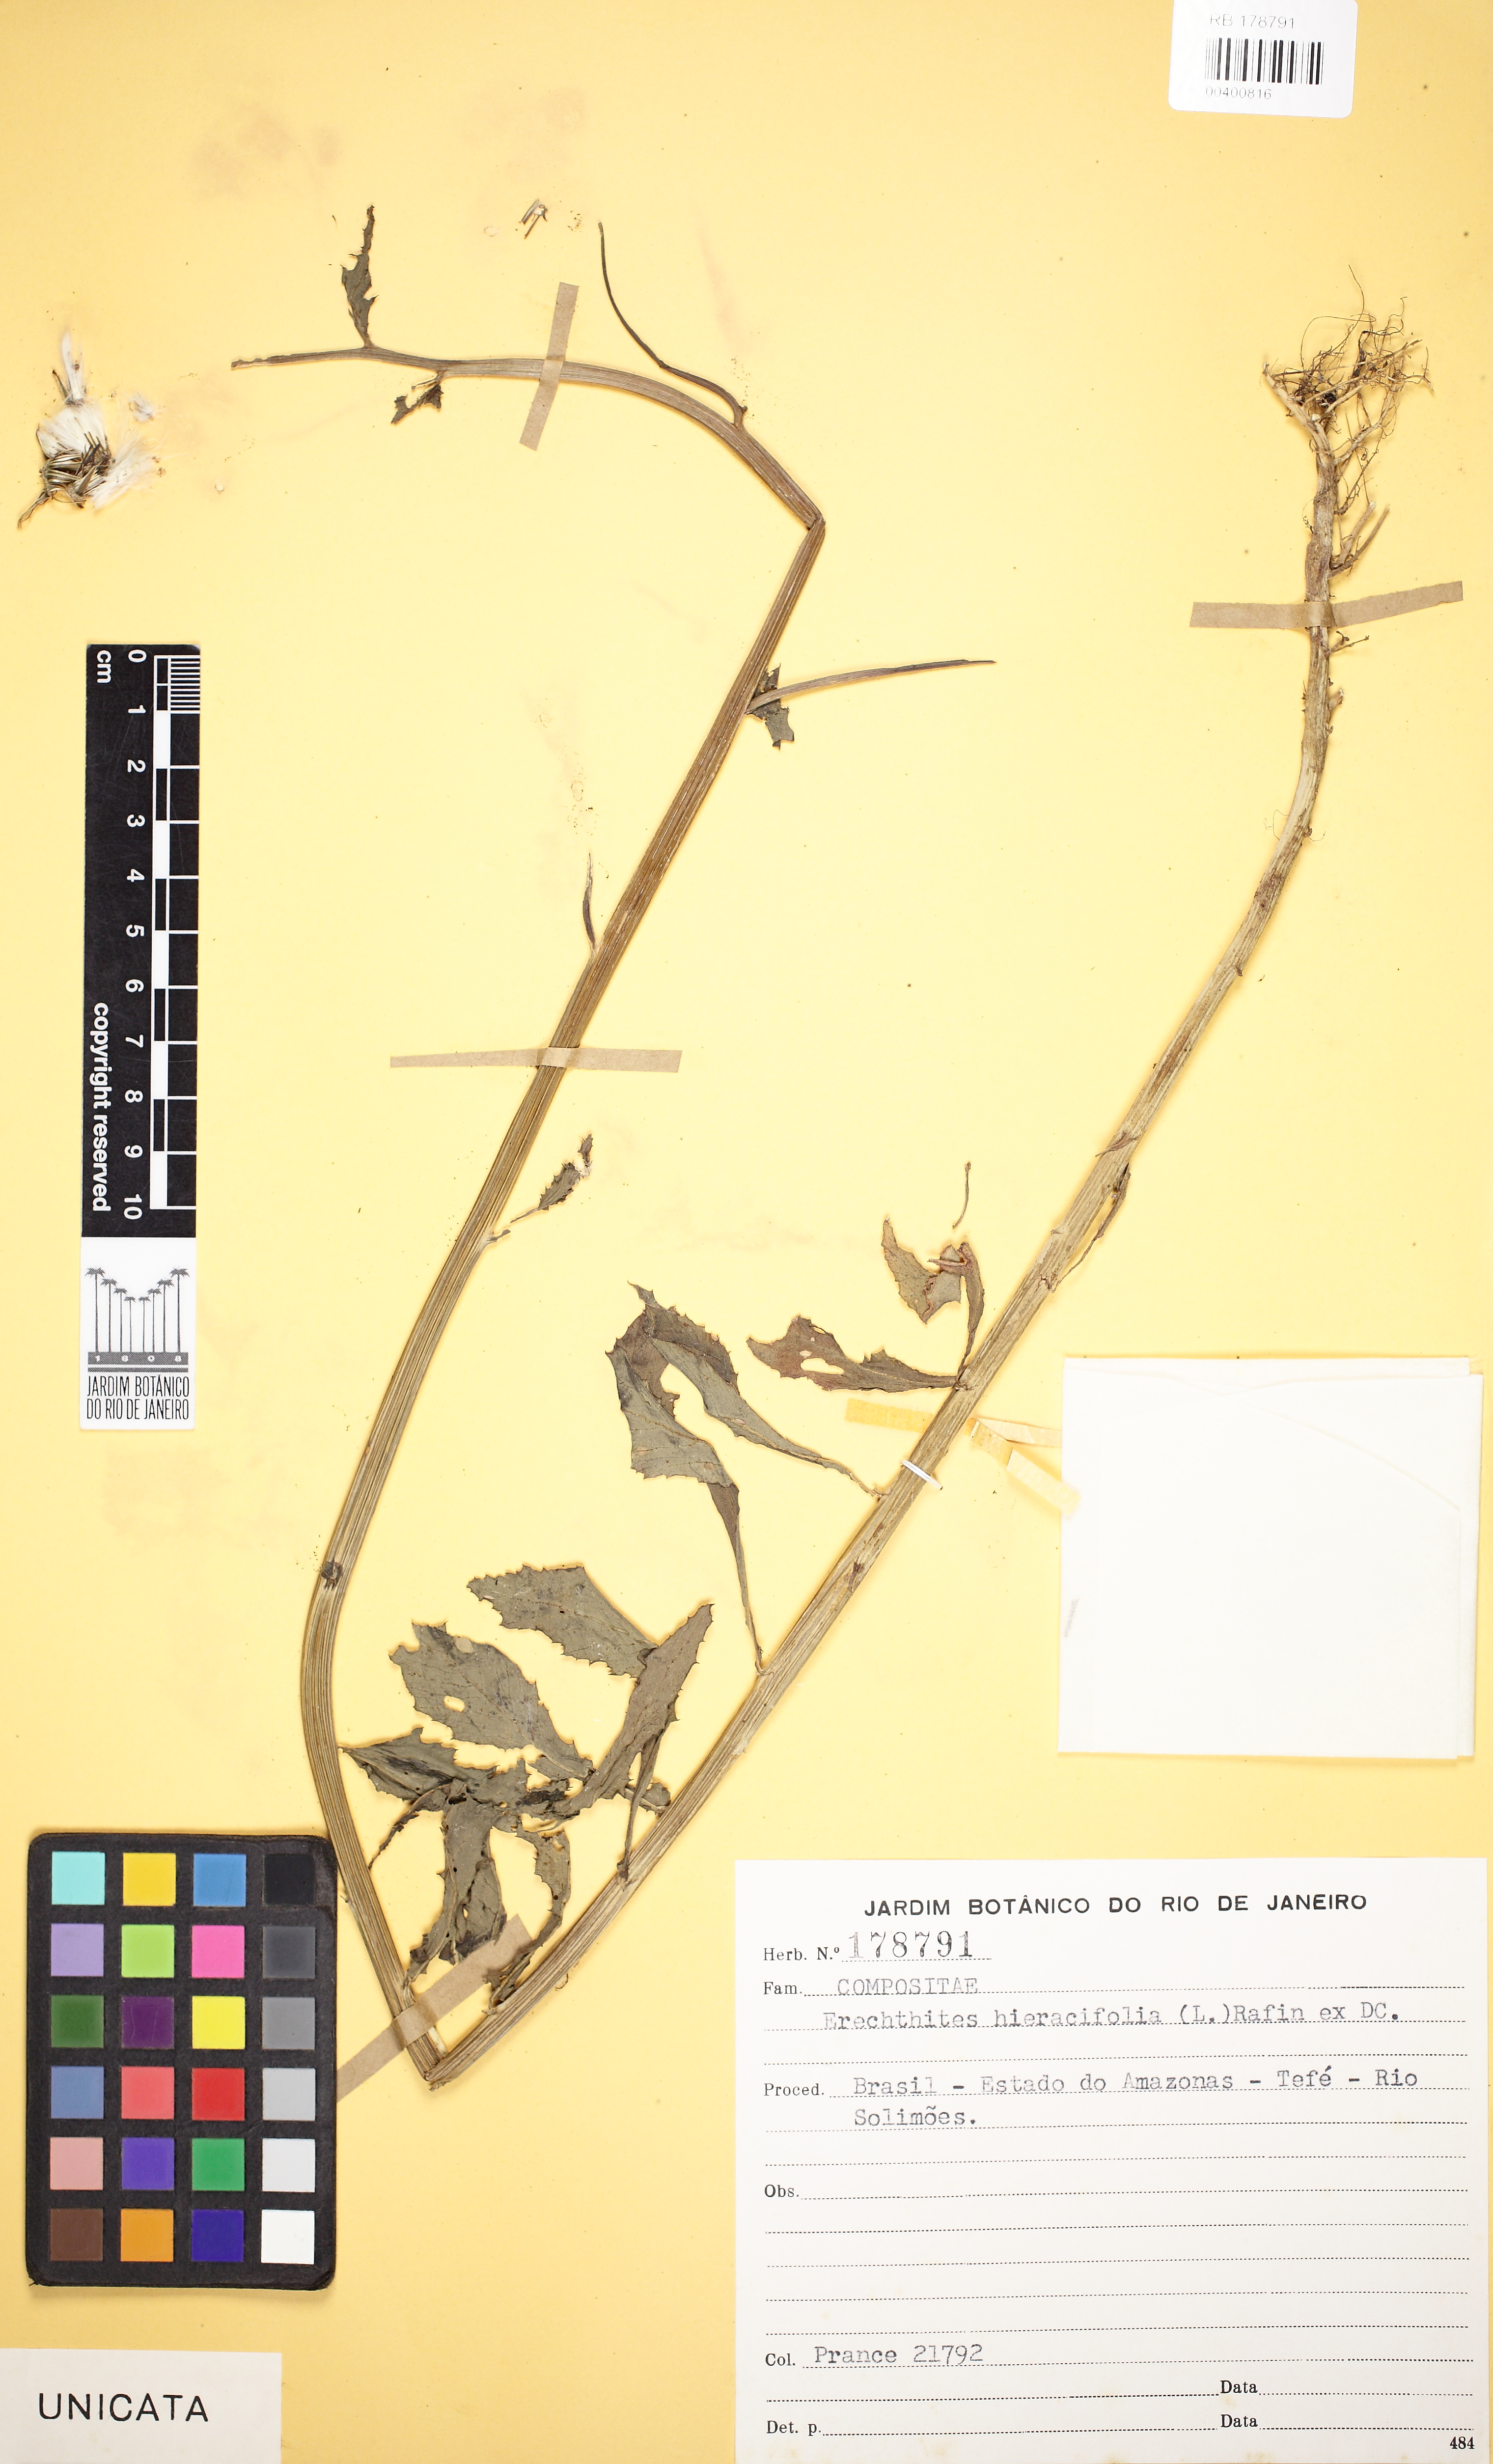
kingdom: Plantae
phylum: Tracheophyta
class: Magnoliopsida
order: Asterales
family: Asteraceae
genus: Erechtites
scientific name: Erechtites hieraciifolius
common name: American burnweed
